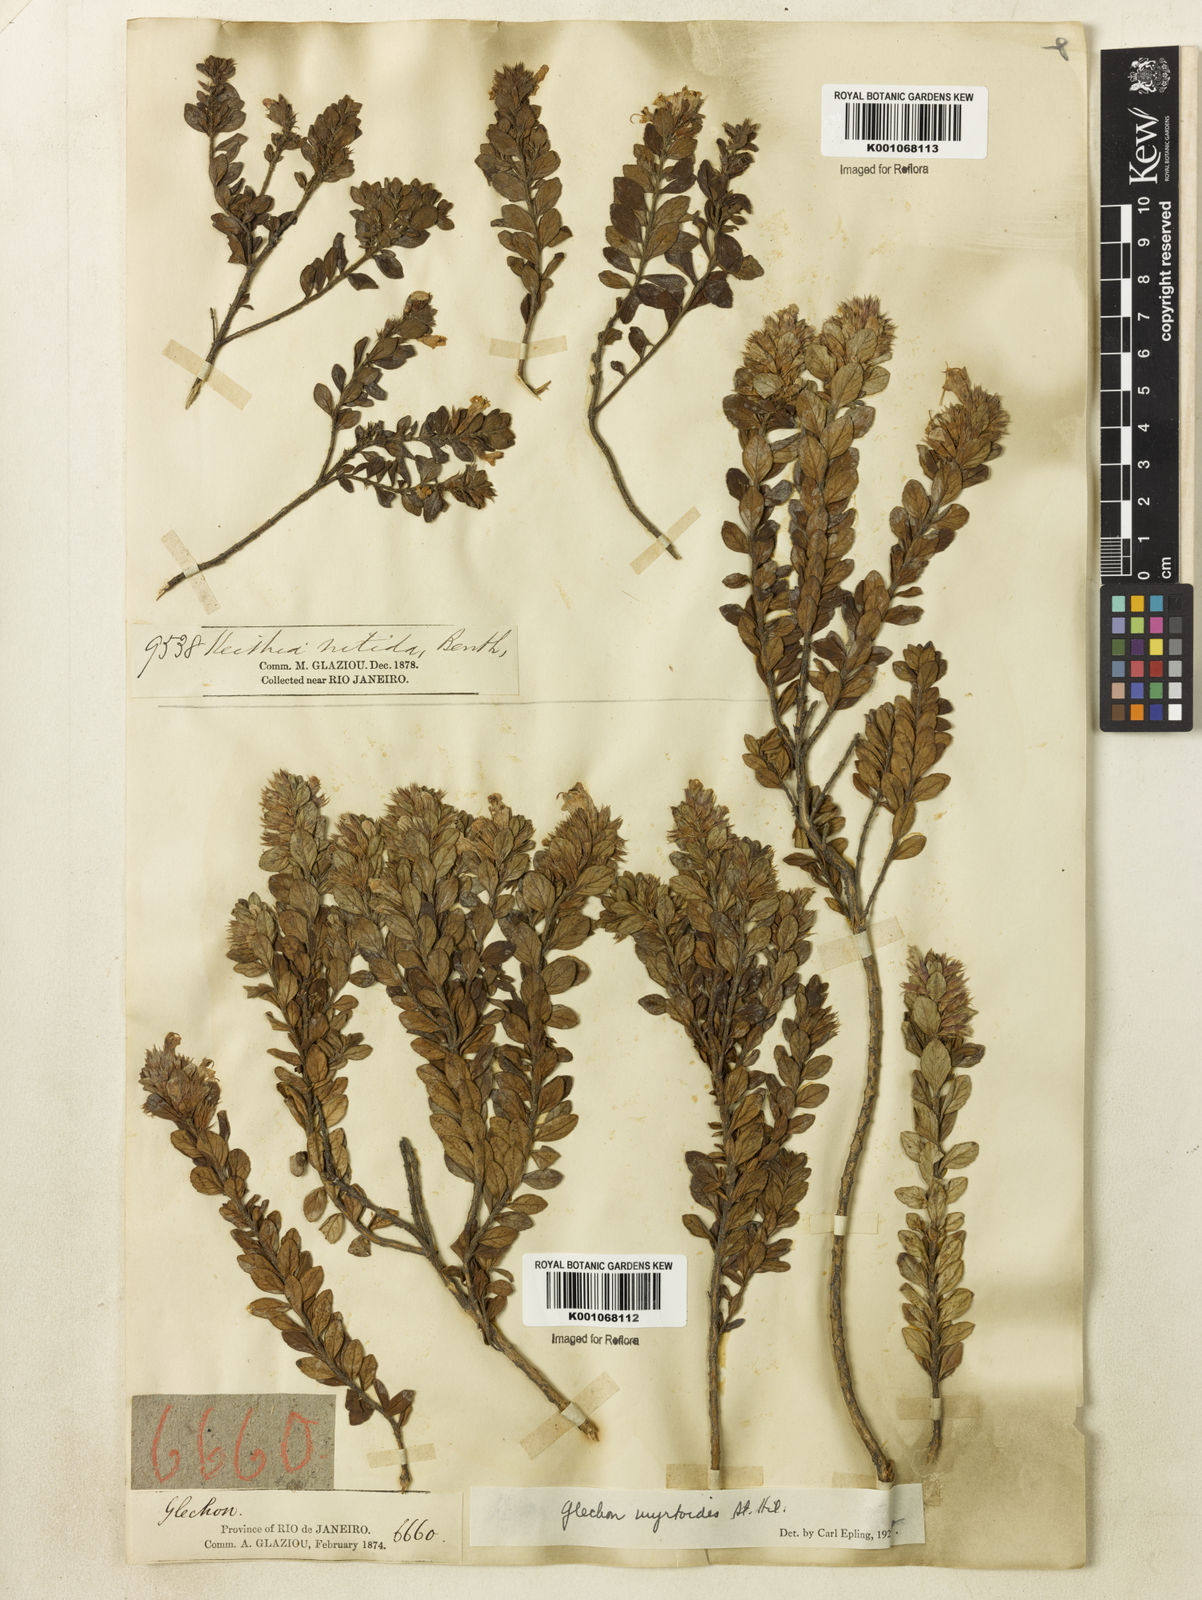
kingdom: Plantae
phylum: Tracheophyta
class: Magnoliopsida
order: Lamiales
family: Lamiaceae
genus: Hesperozygis
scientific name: Hesperozygis myrtoides
